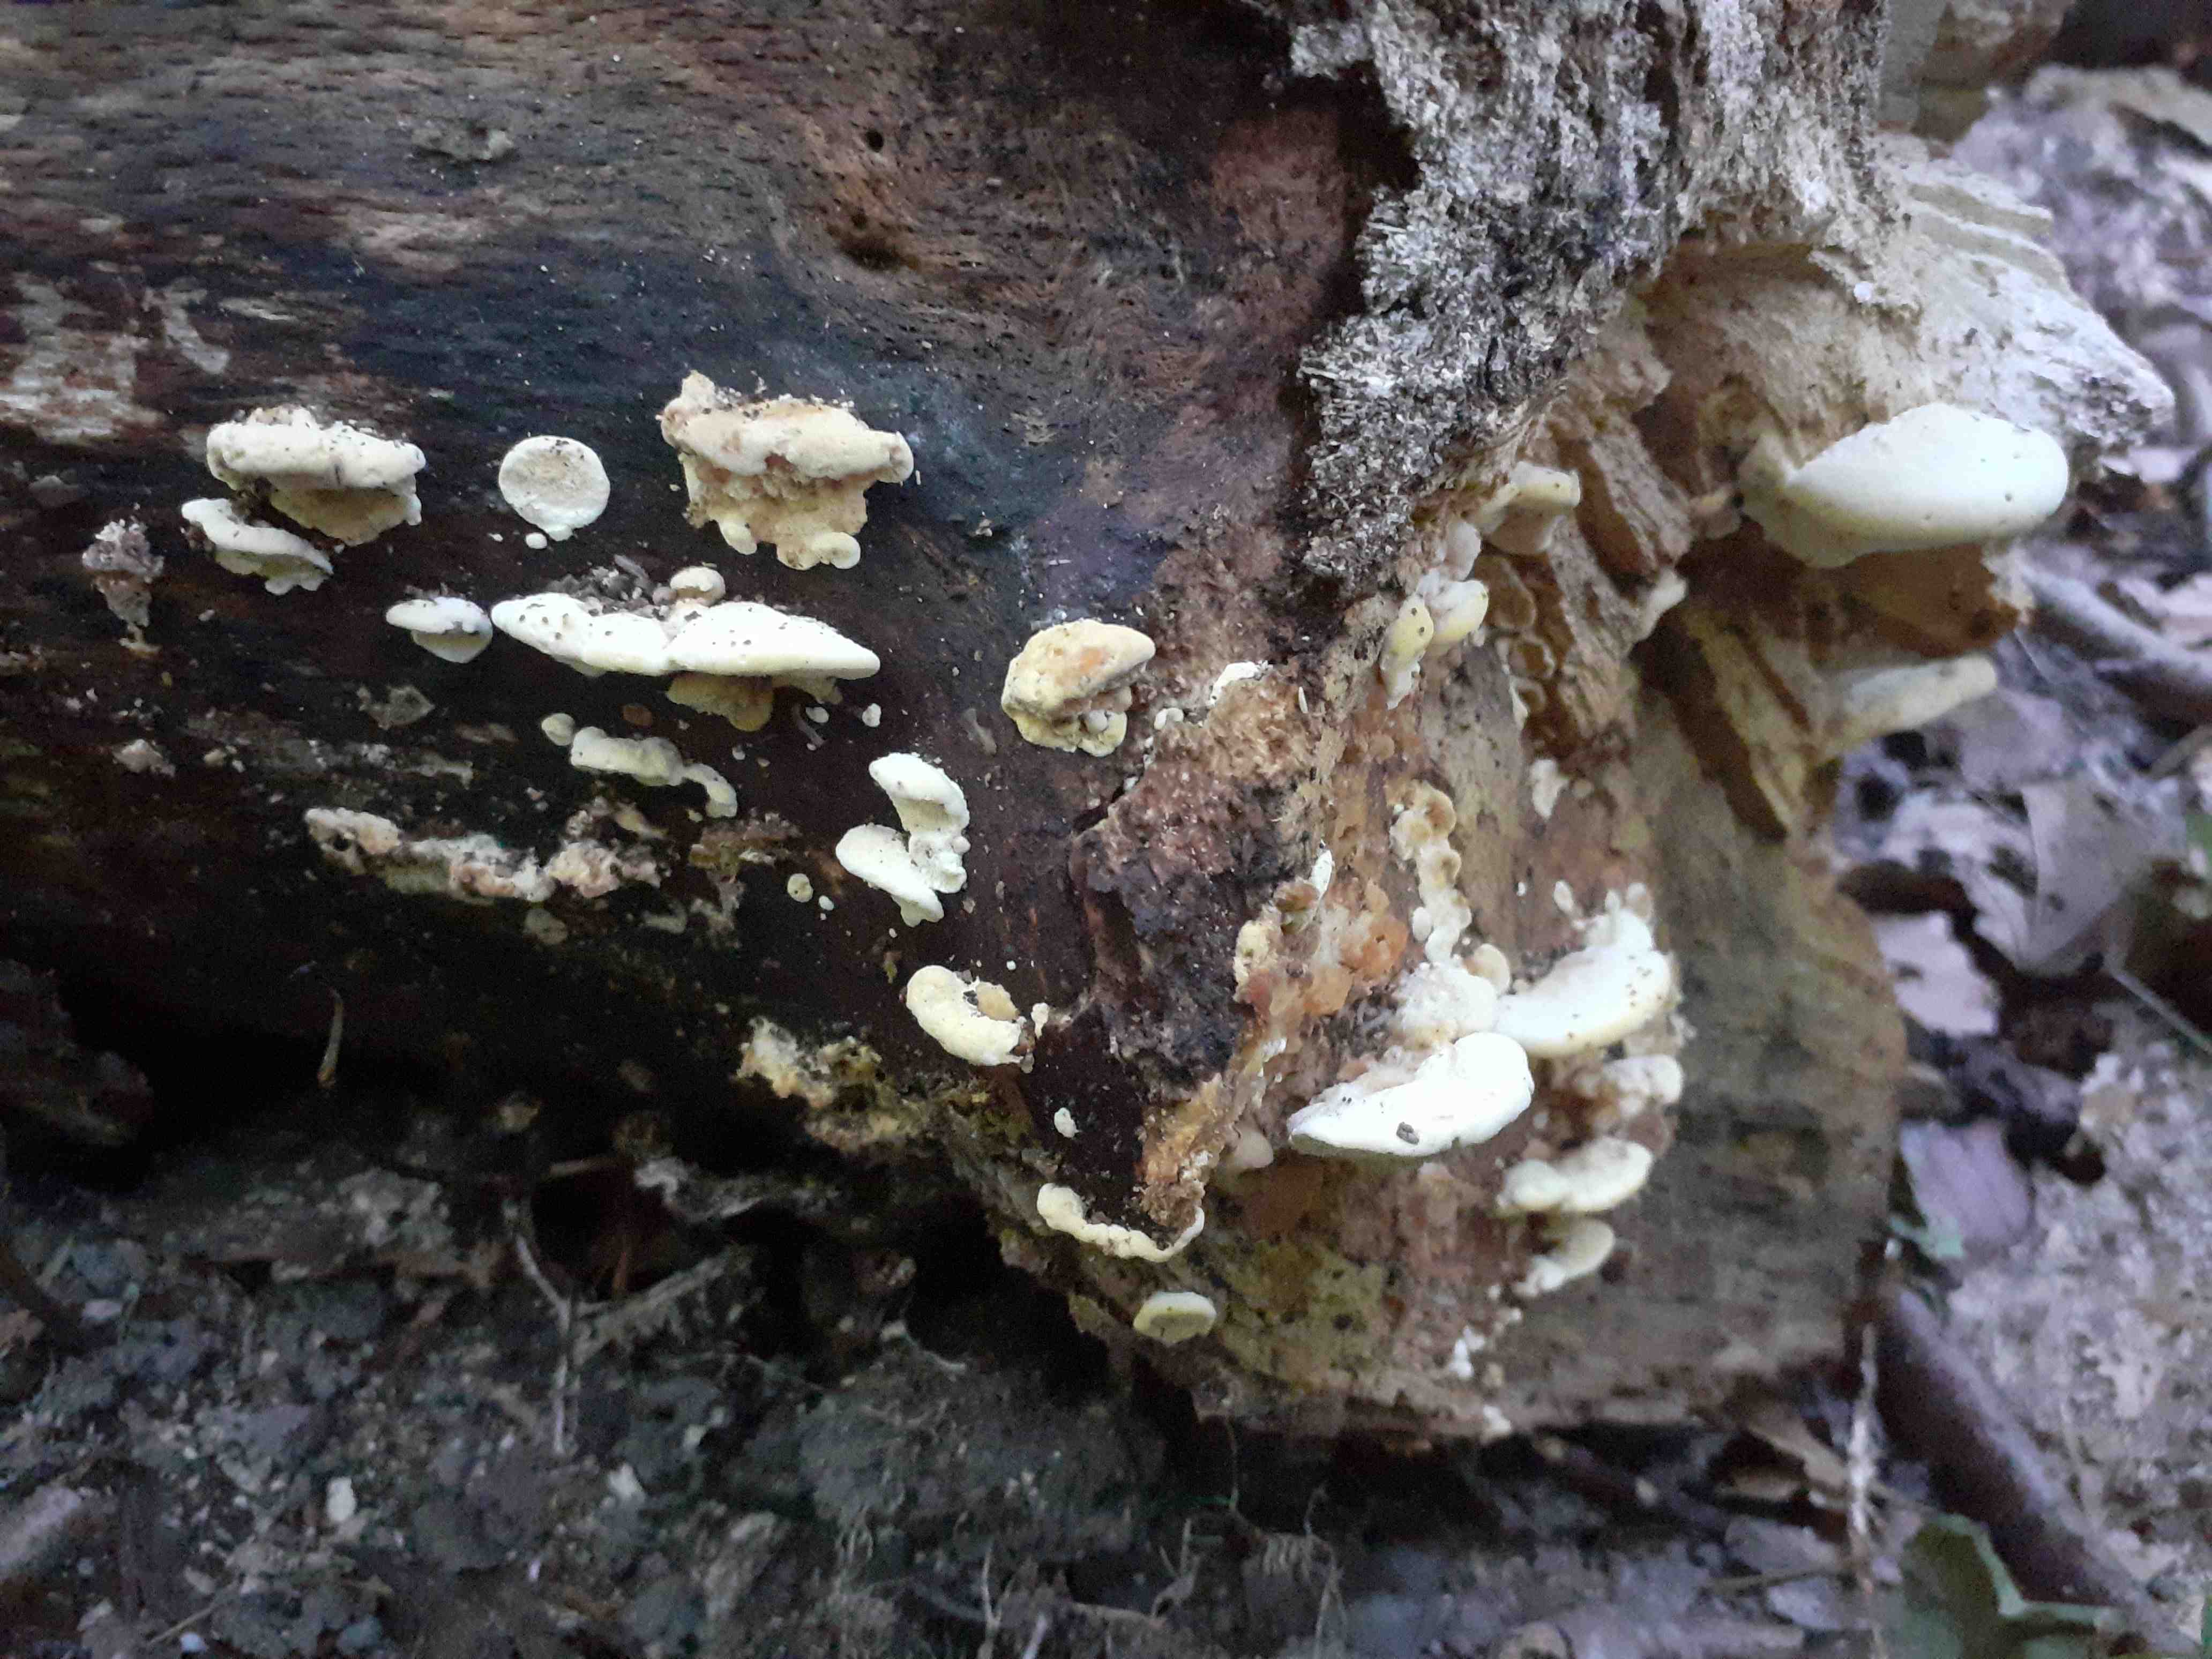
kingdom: Fungi
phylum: Basidiomycota
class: Agaricomycetes
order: Polyporales
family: Steccherinaceae
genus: Antrodiella
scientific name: Antrodiella serpula
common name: gulrandet elastikporesvamp
